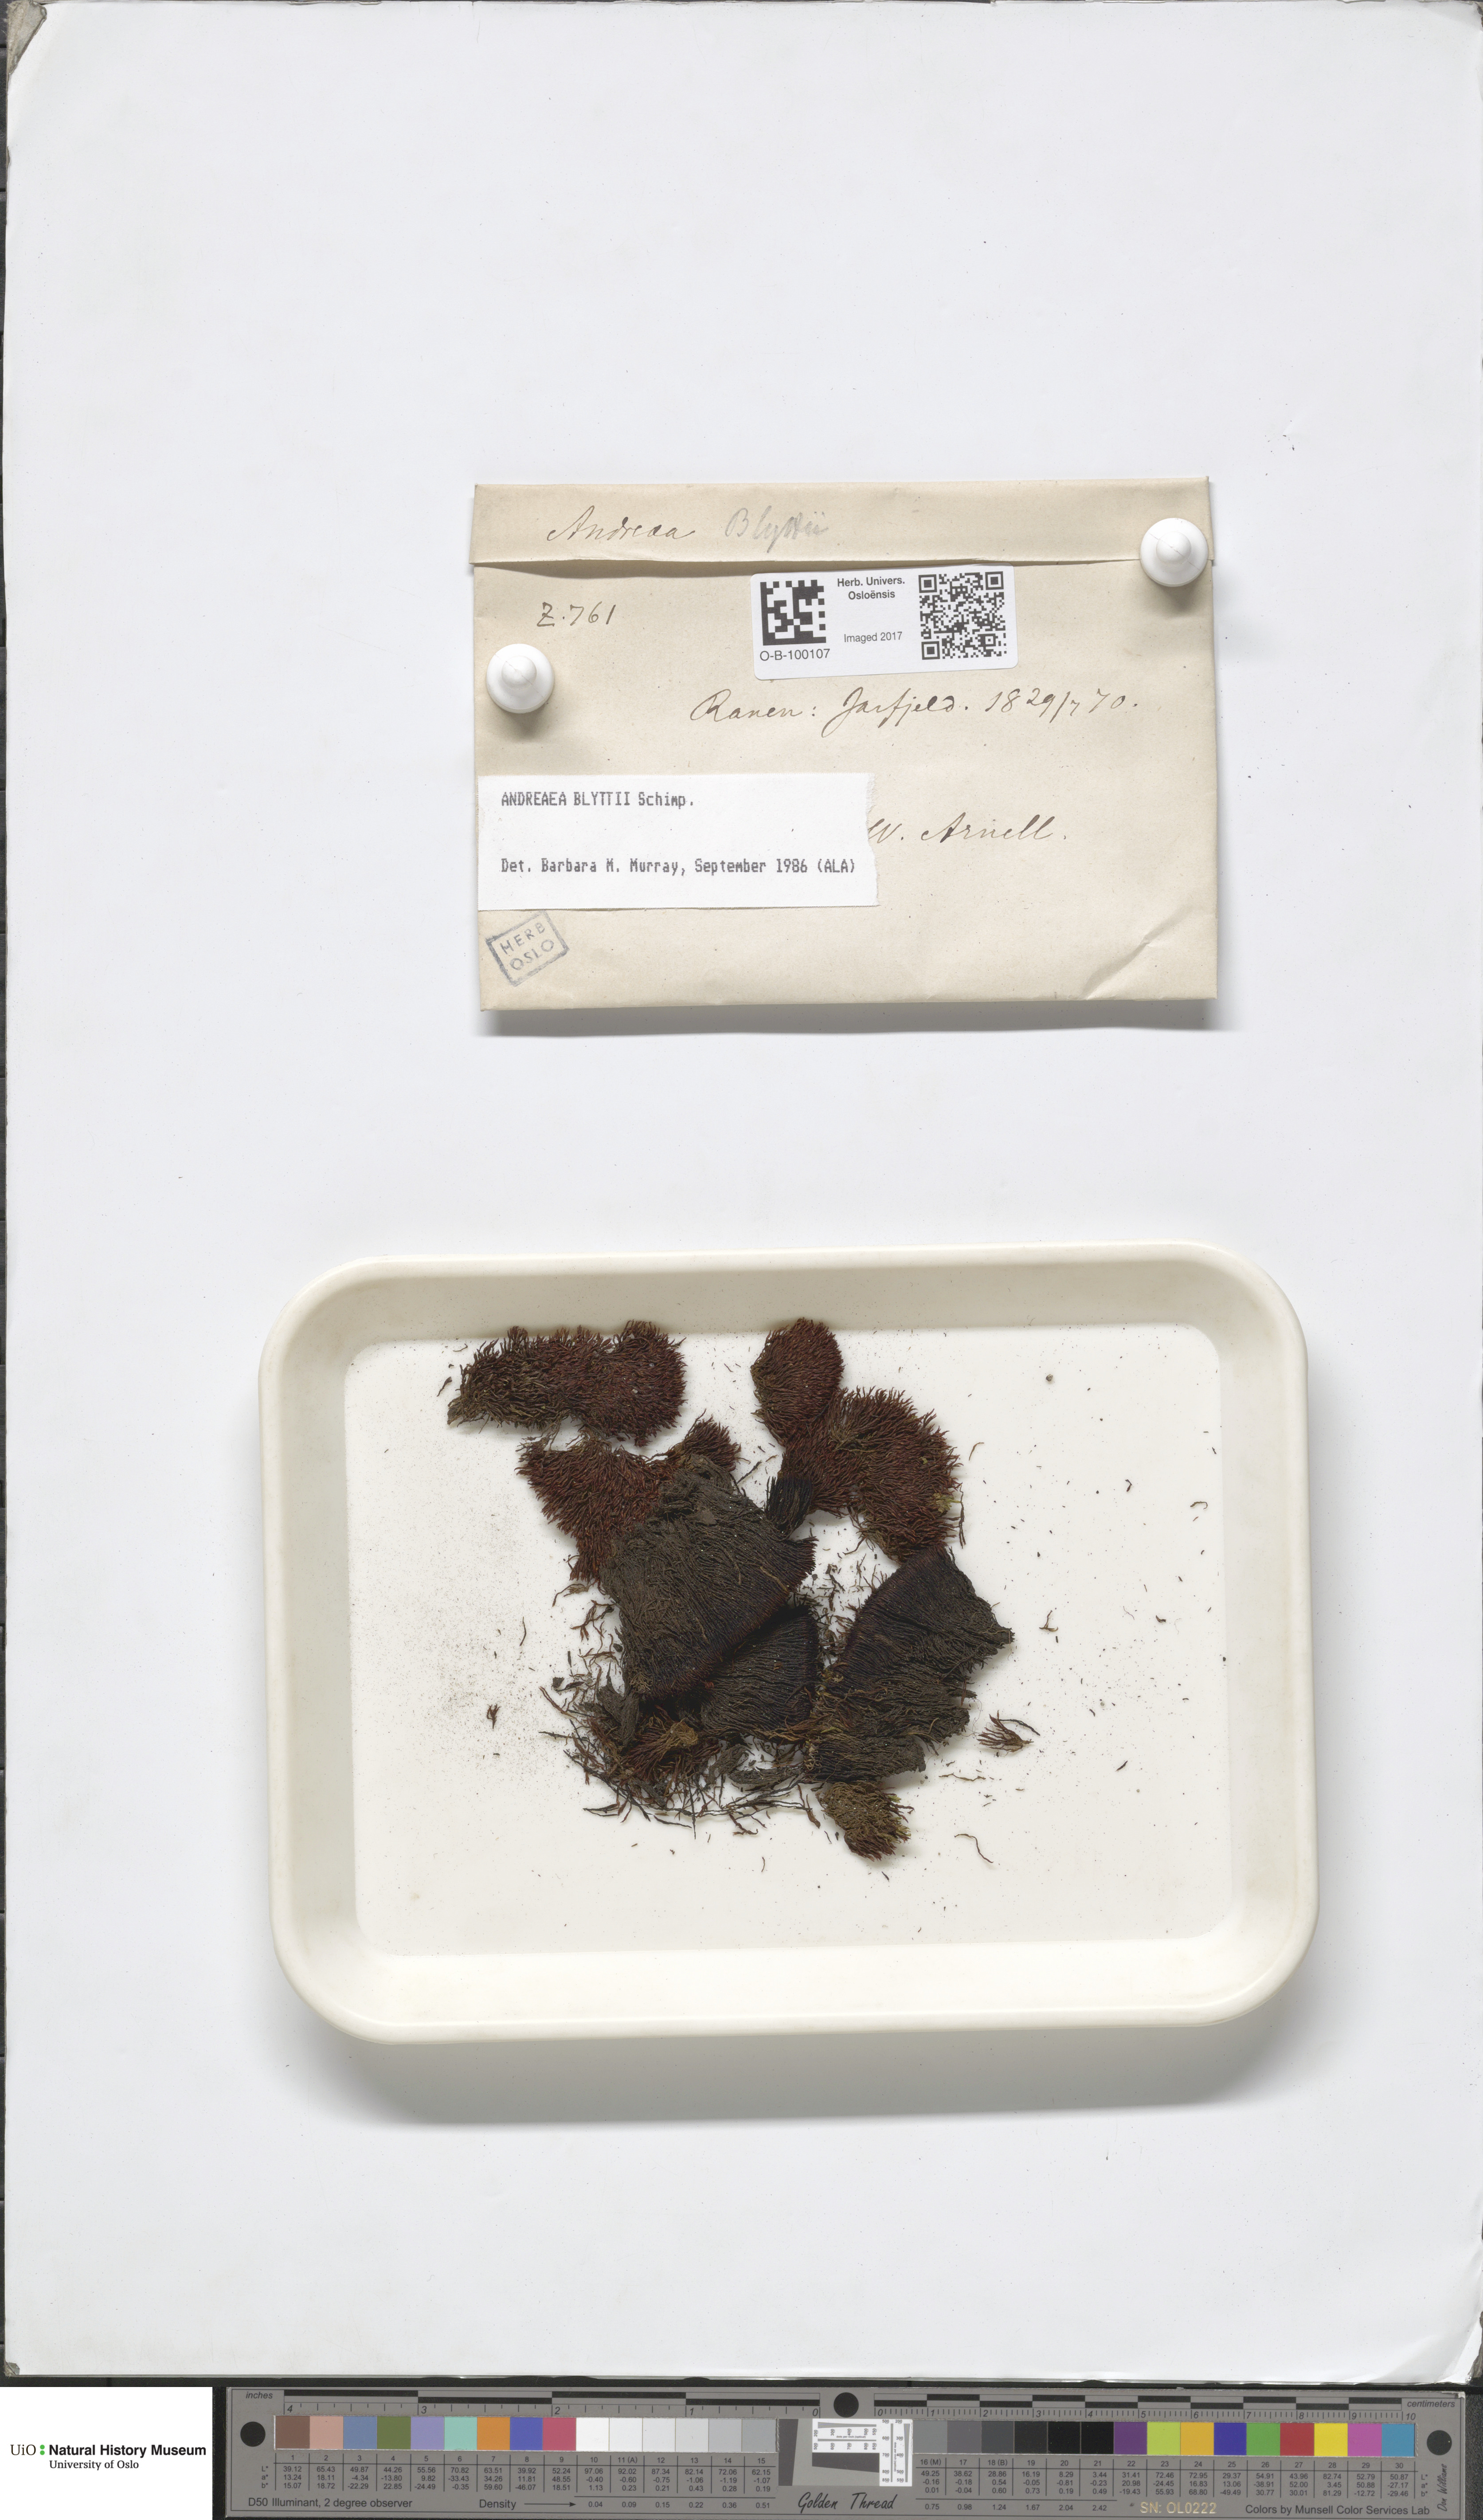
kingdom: Plantae
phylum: Bryophyta
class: Andreaeopsida
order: Andreaeales
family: Andreaeaceae
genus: Andreaea
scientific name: Andreaea blyttii
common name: Blytt's rock moss
